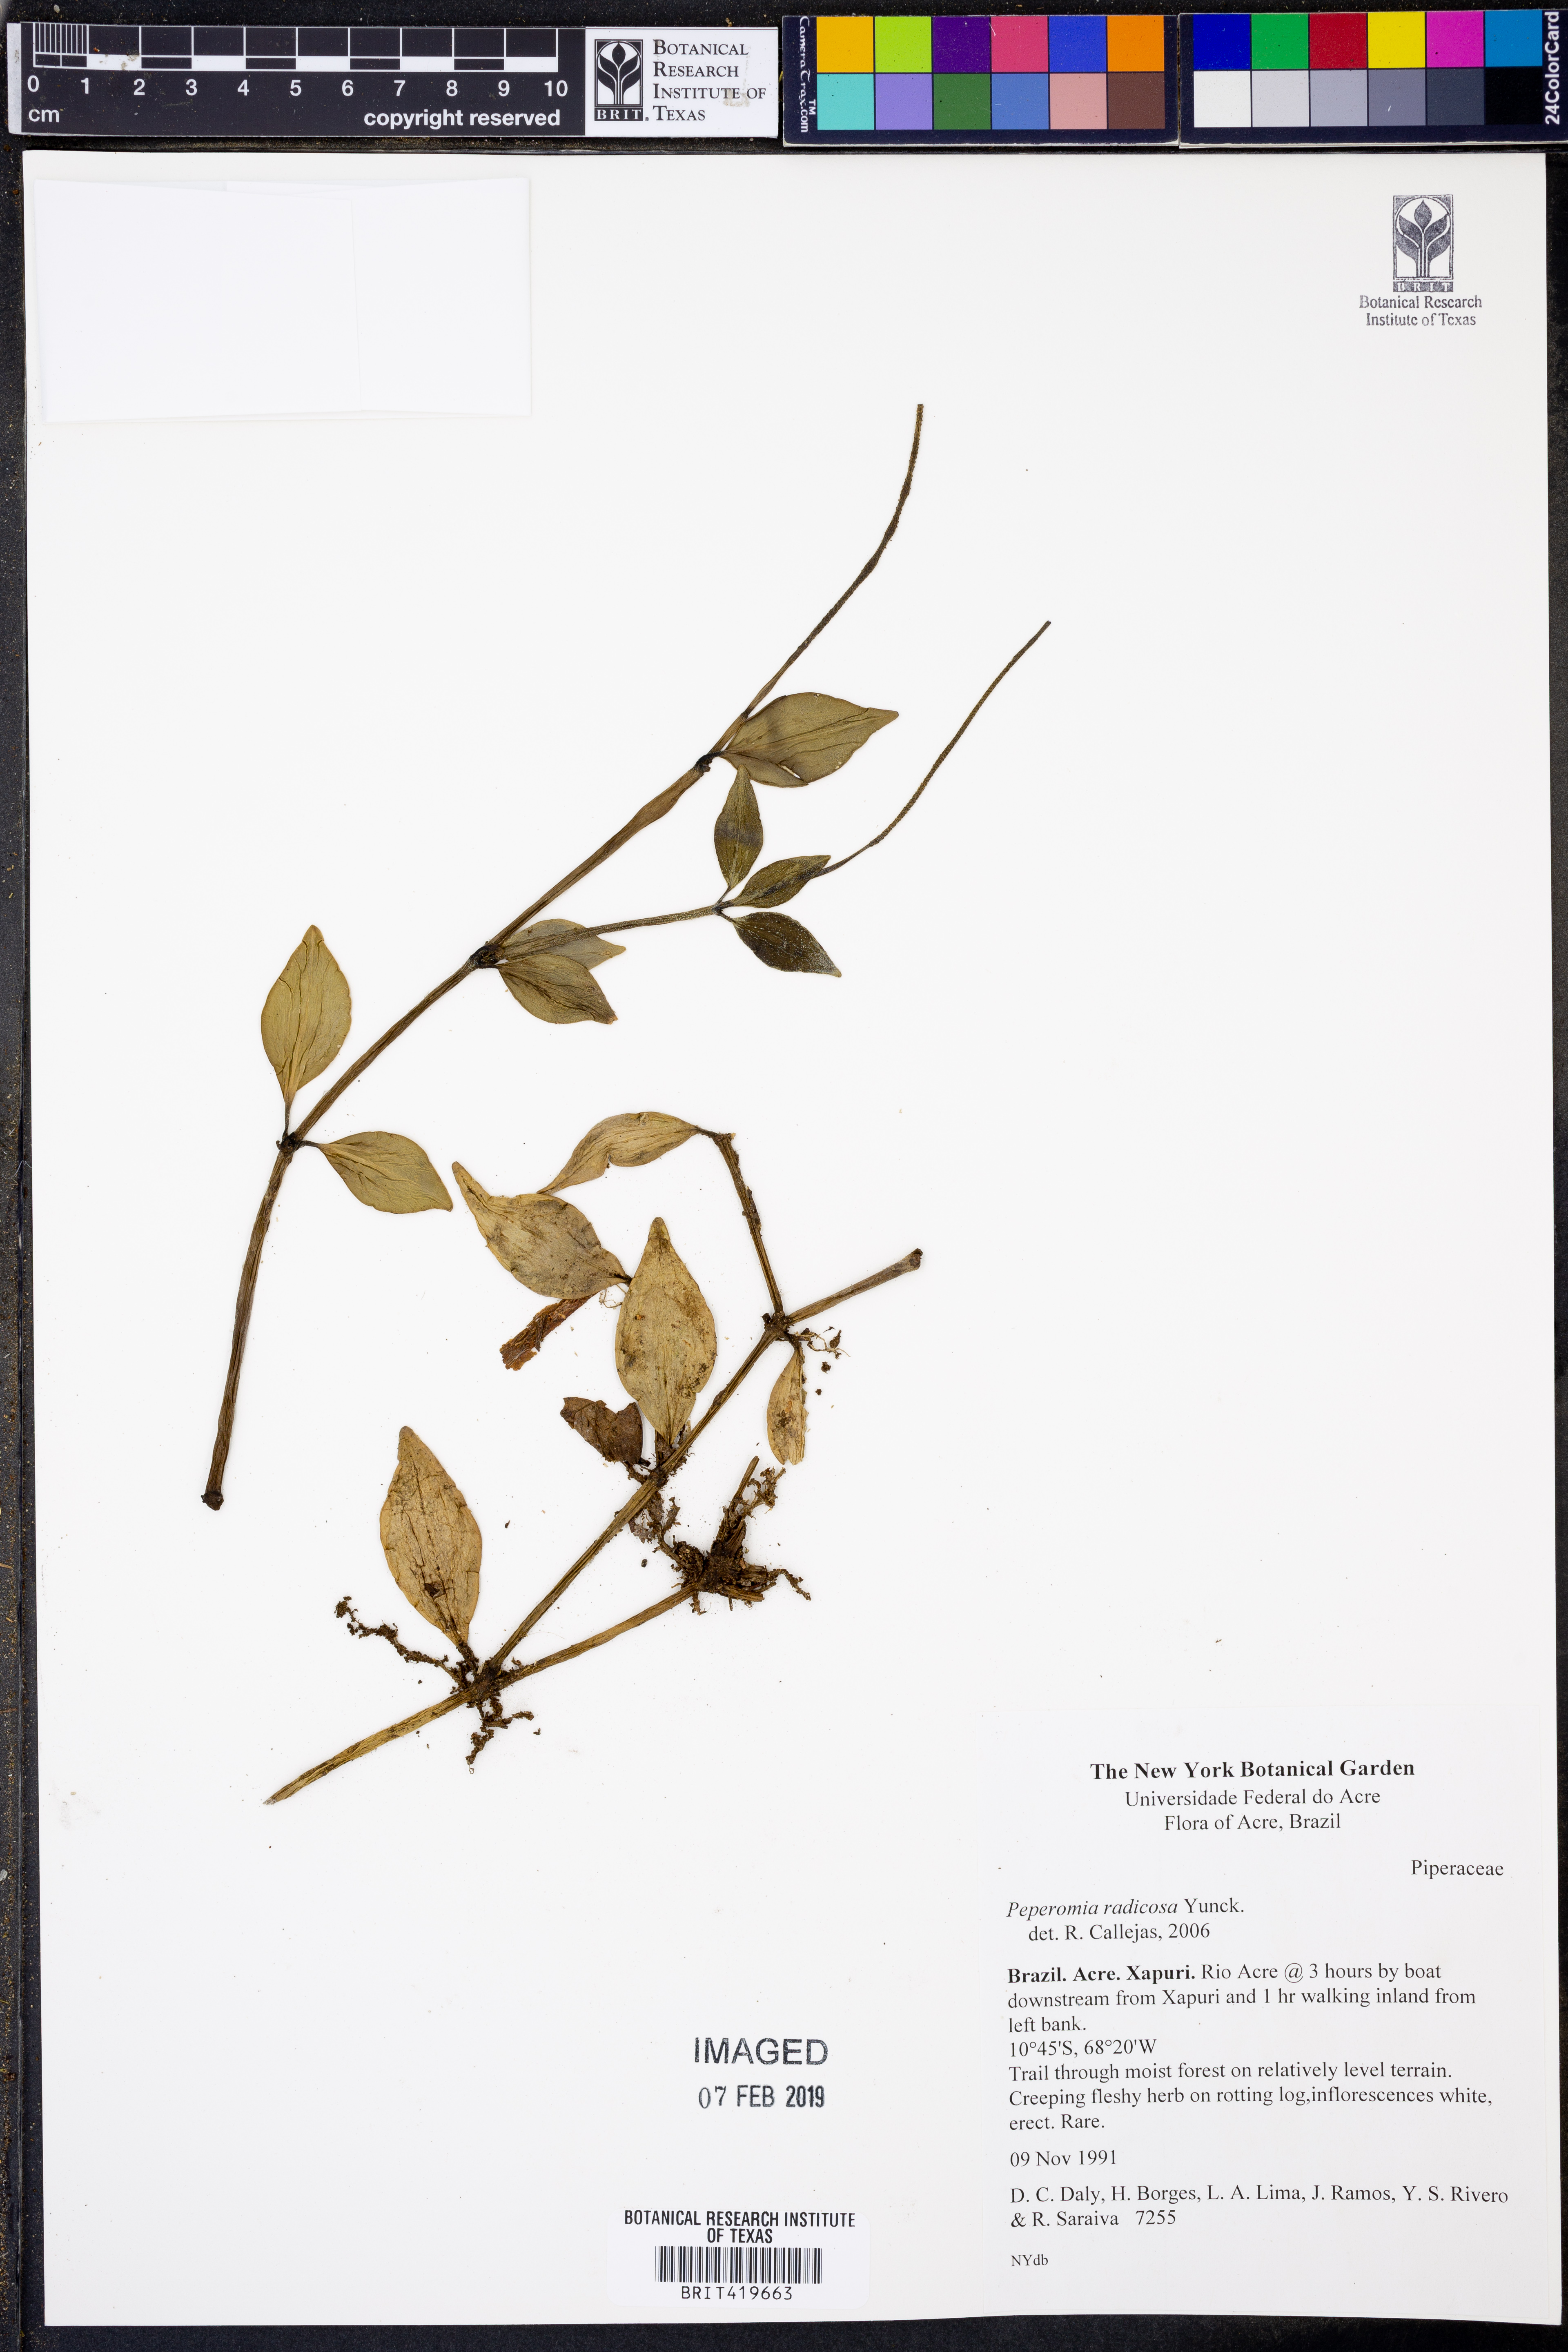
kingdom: Plantae
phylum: Tracheophyta
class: Magnoliopsida
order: Piperales
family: Piperaceae
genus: Peperomia
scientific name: Peperomia radicosa
